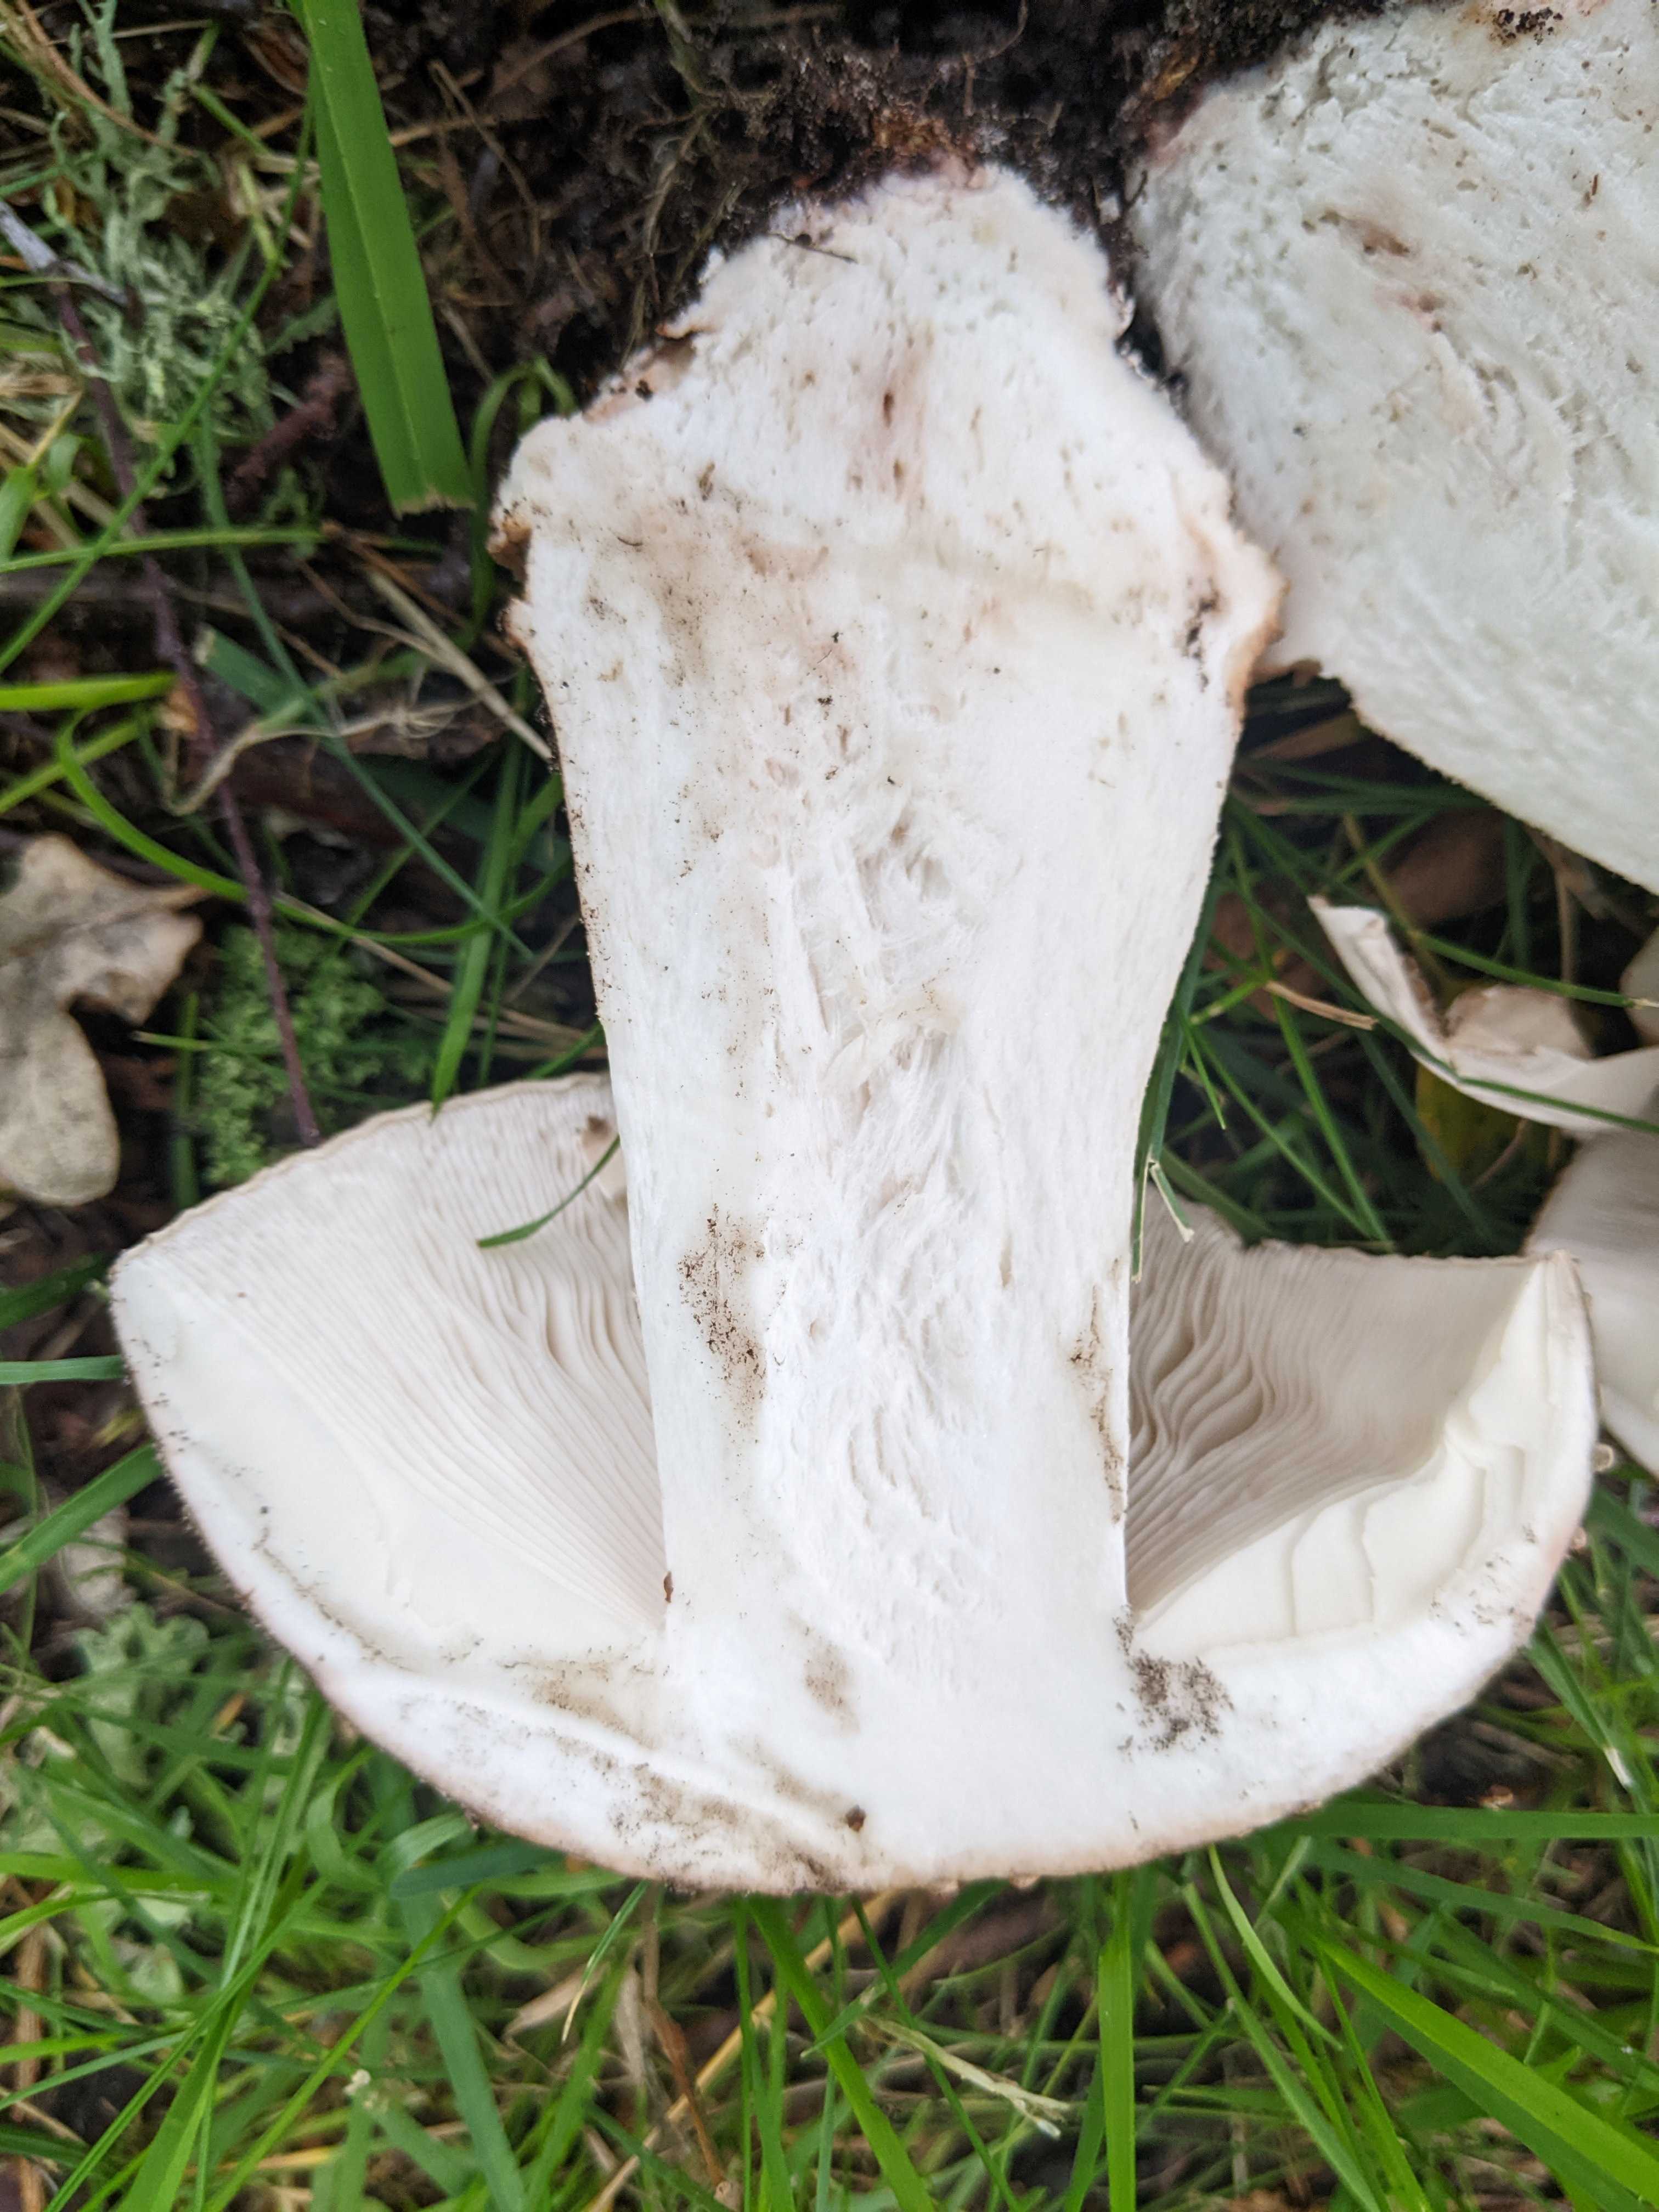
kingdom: Fungi
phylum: Basidiomycota
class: Agaricomycetes
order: Agaricales
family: Amanitaceae
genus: Amanita
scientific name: Amanita rubescens
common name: rødmende fluesvamp
